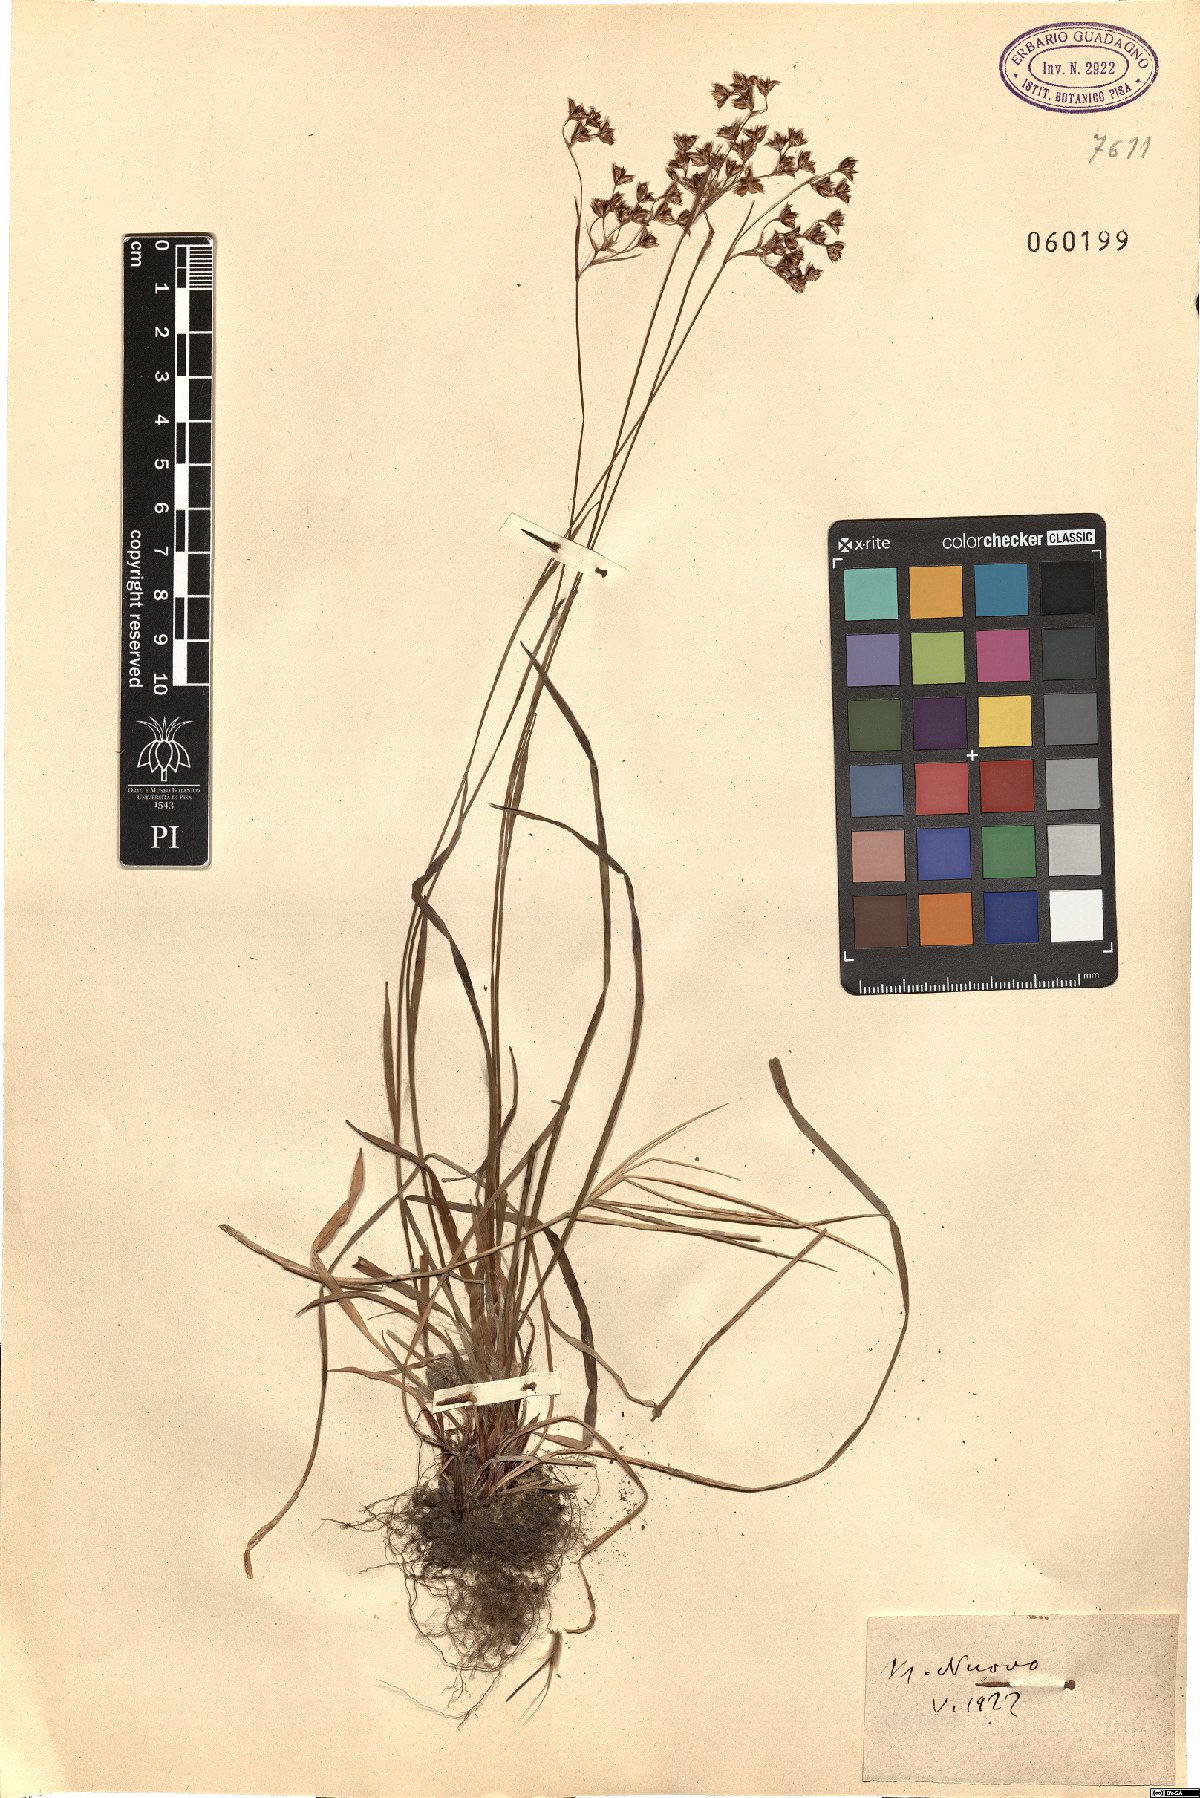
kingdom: Plantae
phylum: Tracheophyta
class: Liliopsida
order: Poales
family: Juncaceae
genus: Luzula
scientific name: Luzula
